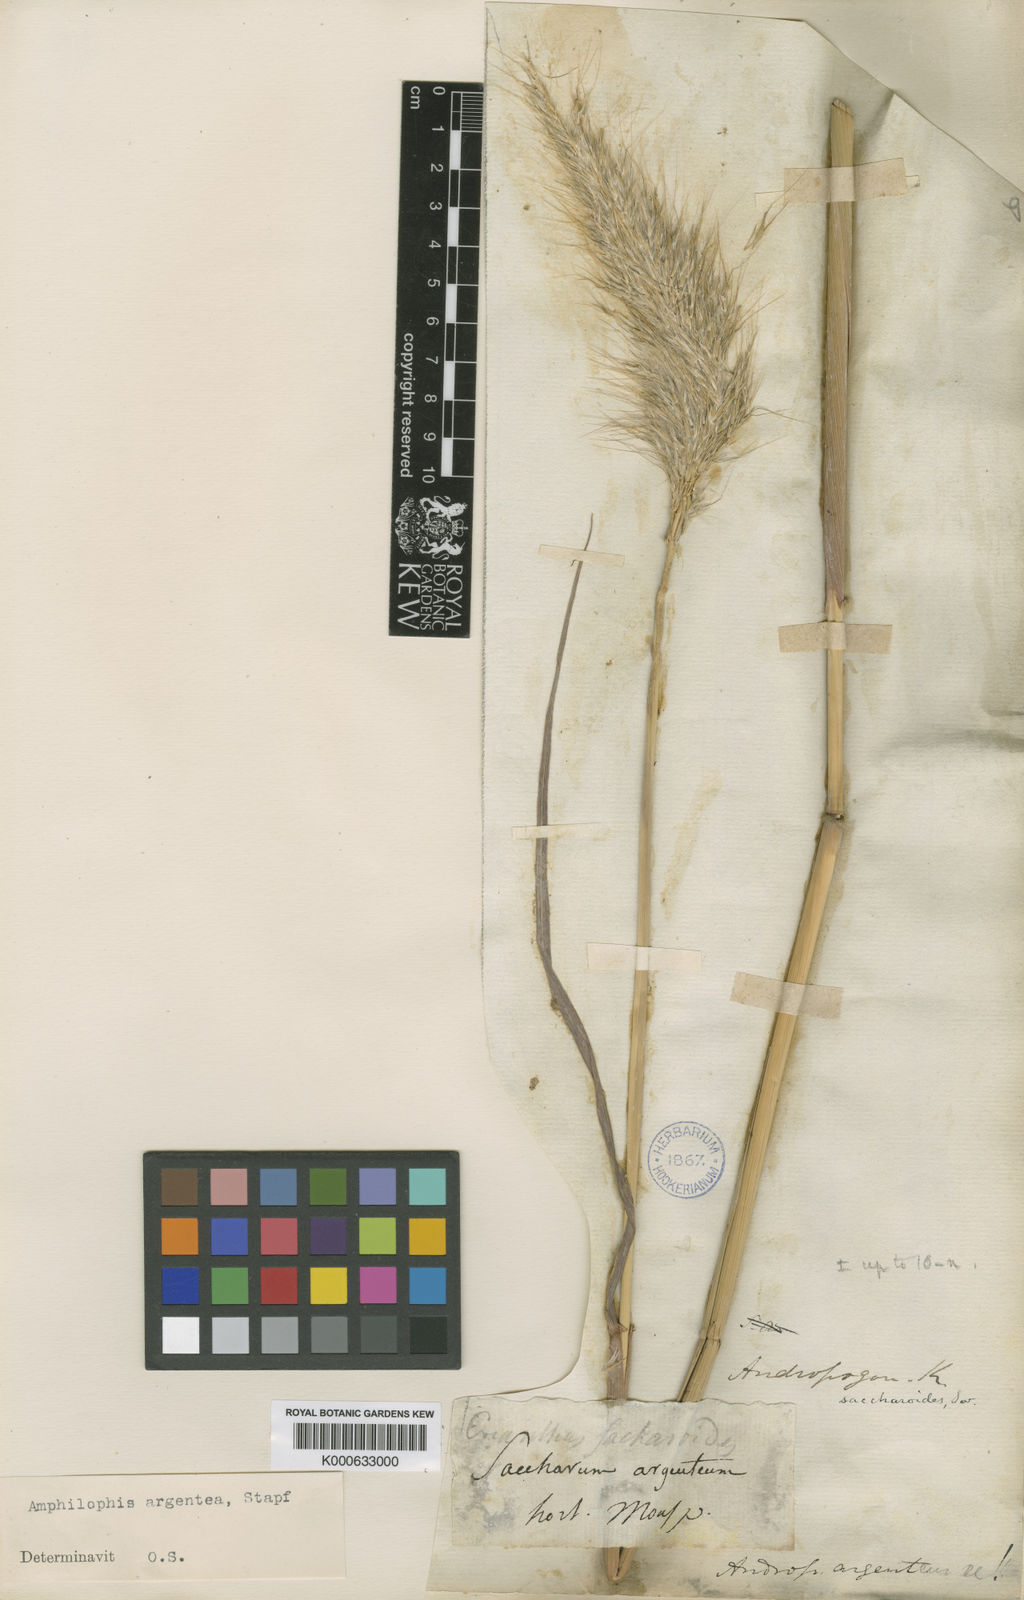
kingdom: Plantae
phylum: Tracheophyta
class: Liliopsida
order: Poales
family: Poaceae
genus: Bothriochloa
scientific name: Bothriochloa alta
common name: Tall bluestem
